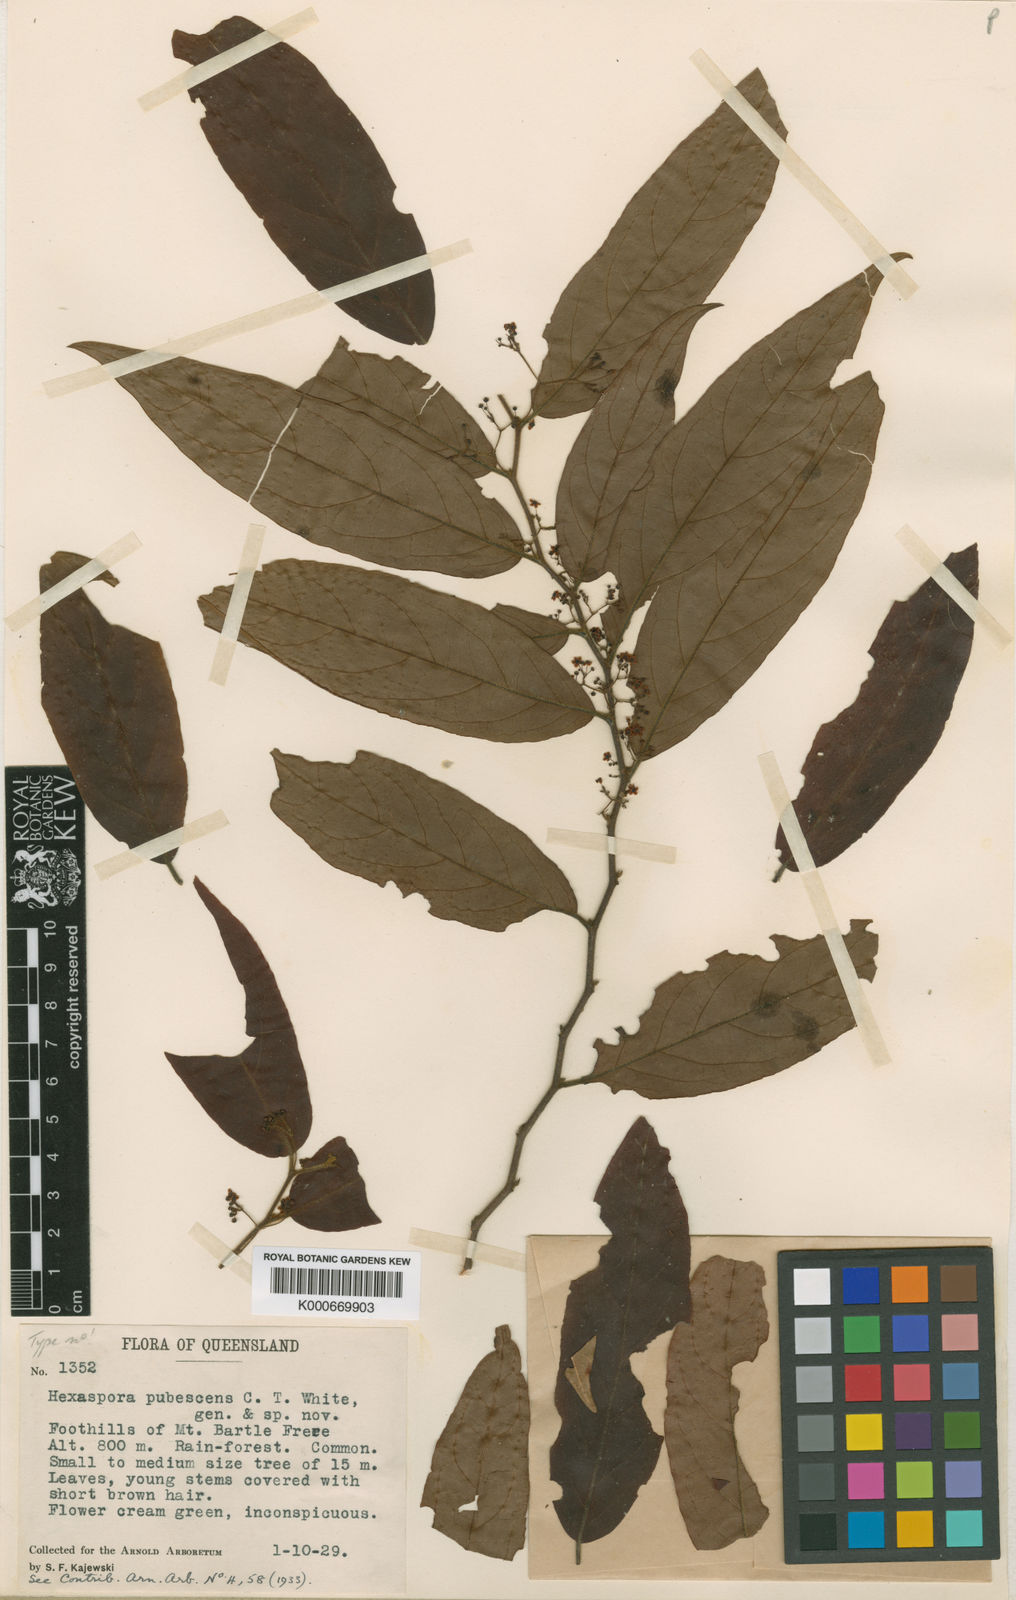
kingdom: Plantae
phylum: Tracheophyta
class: Magnoliopsida
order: Celastrales
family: Celastraceae
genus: Hexaspora
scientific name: Hexaspora pubescens
